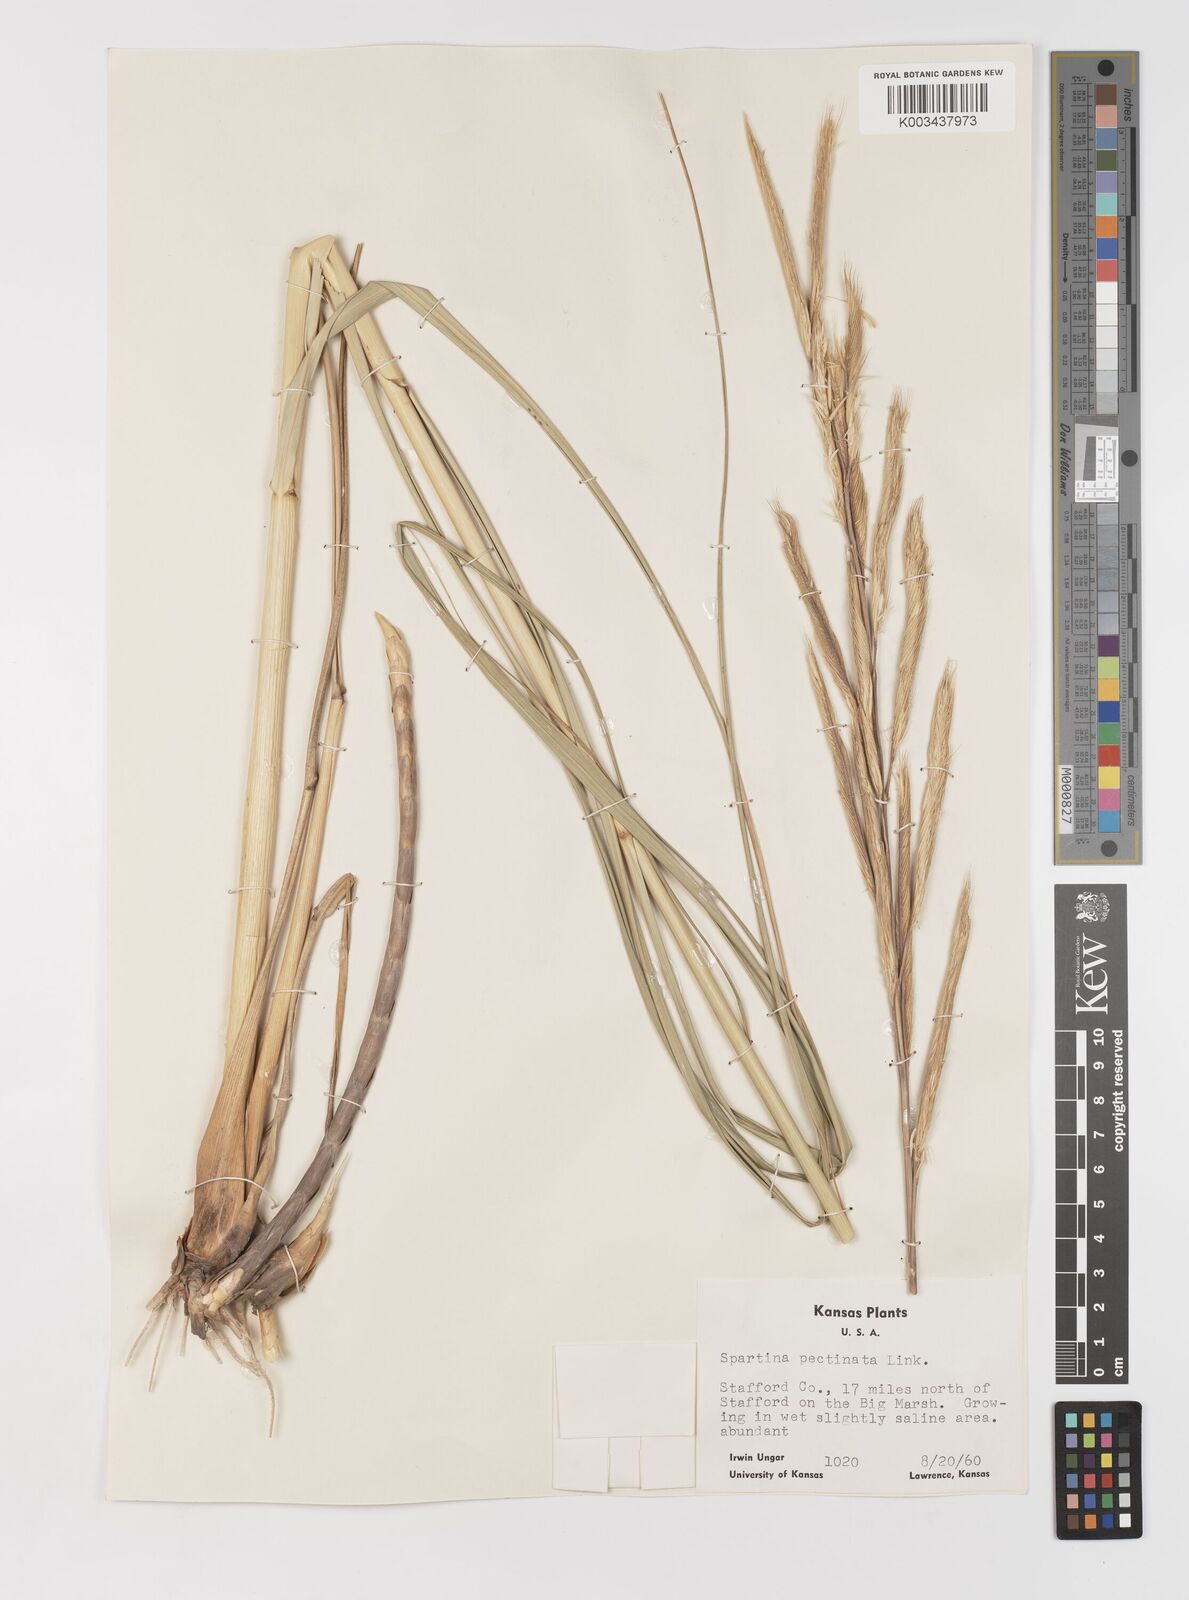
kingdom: Plantae
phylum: Tracheophyta
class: Liliopsida
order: Poales
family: Poaceae
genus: Sporobolus
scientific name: Sporobolus michauxianus
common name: Freshwater cordgrass
